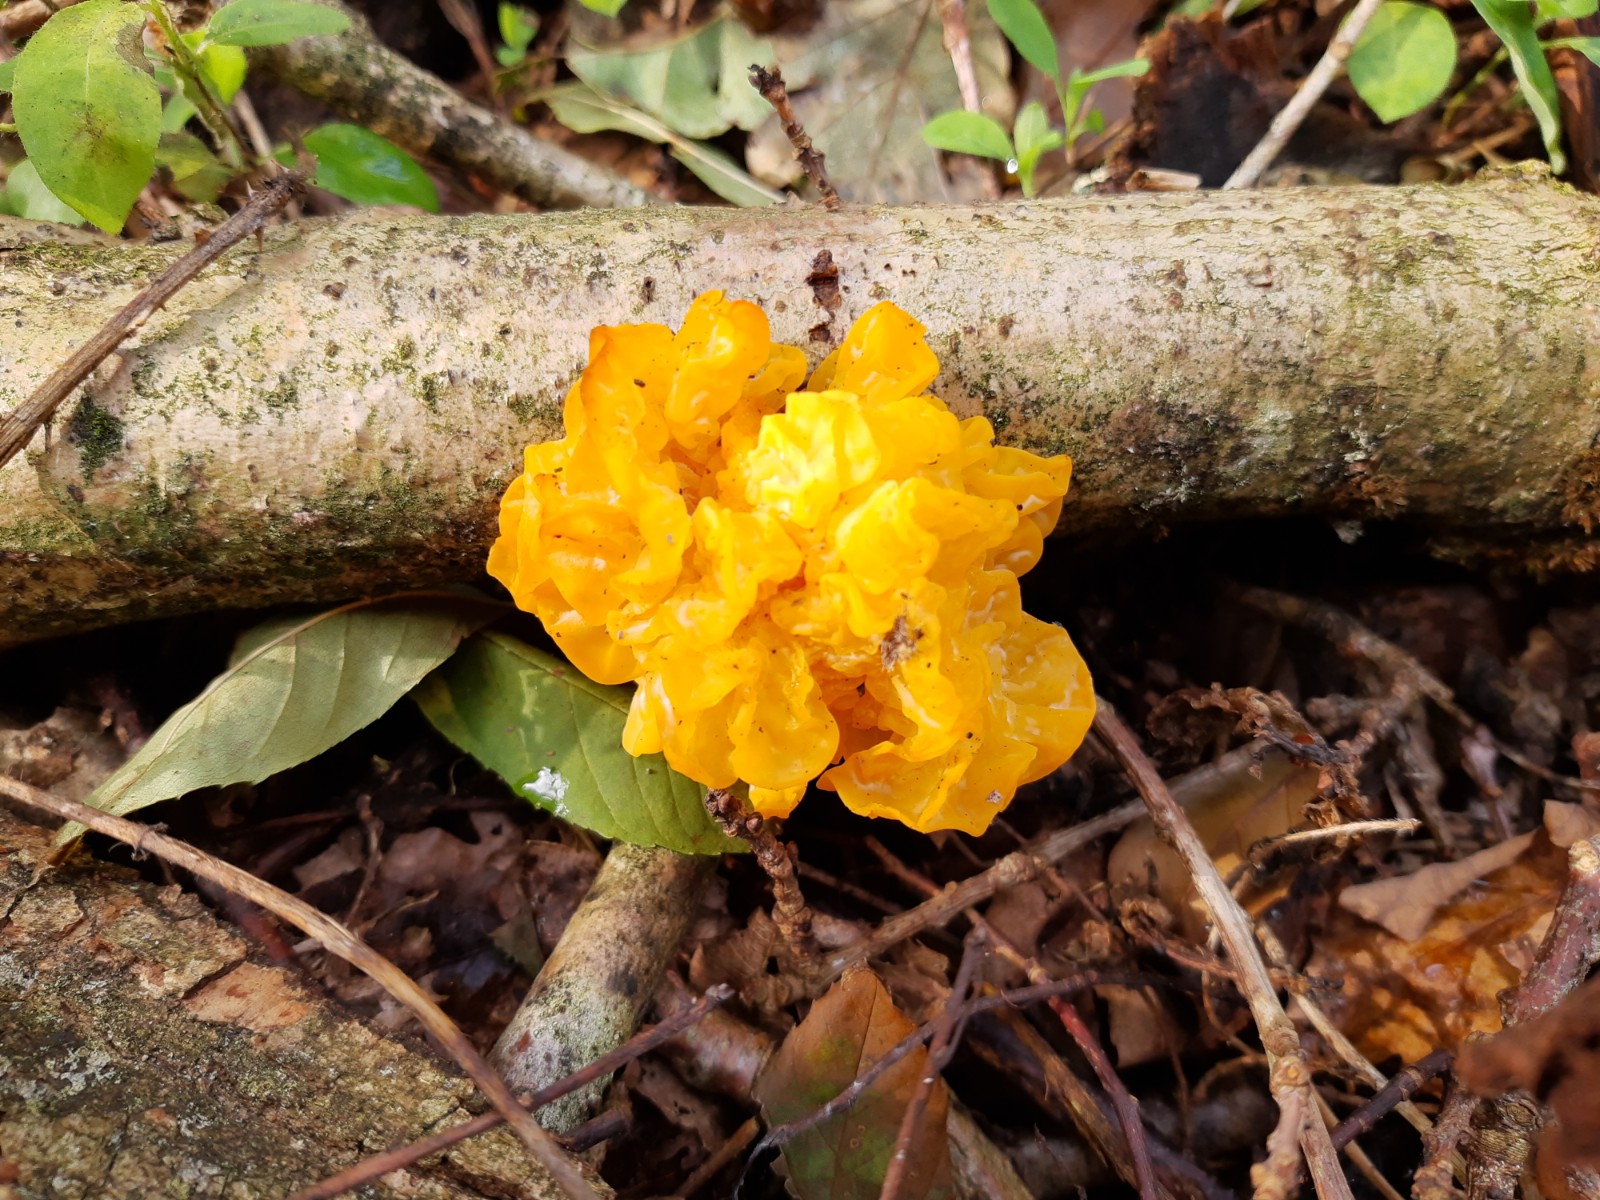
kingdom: Fungi
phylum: Basidiomycota
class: Tremellomycetes
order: Tremellales
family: Tremellaceae
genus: Tremella
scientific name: Tremella mesenterica
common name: gul bævresvamp
